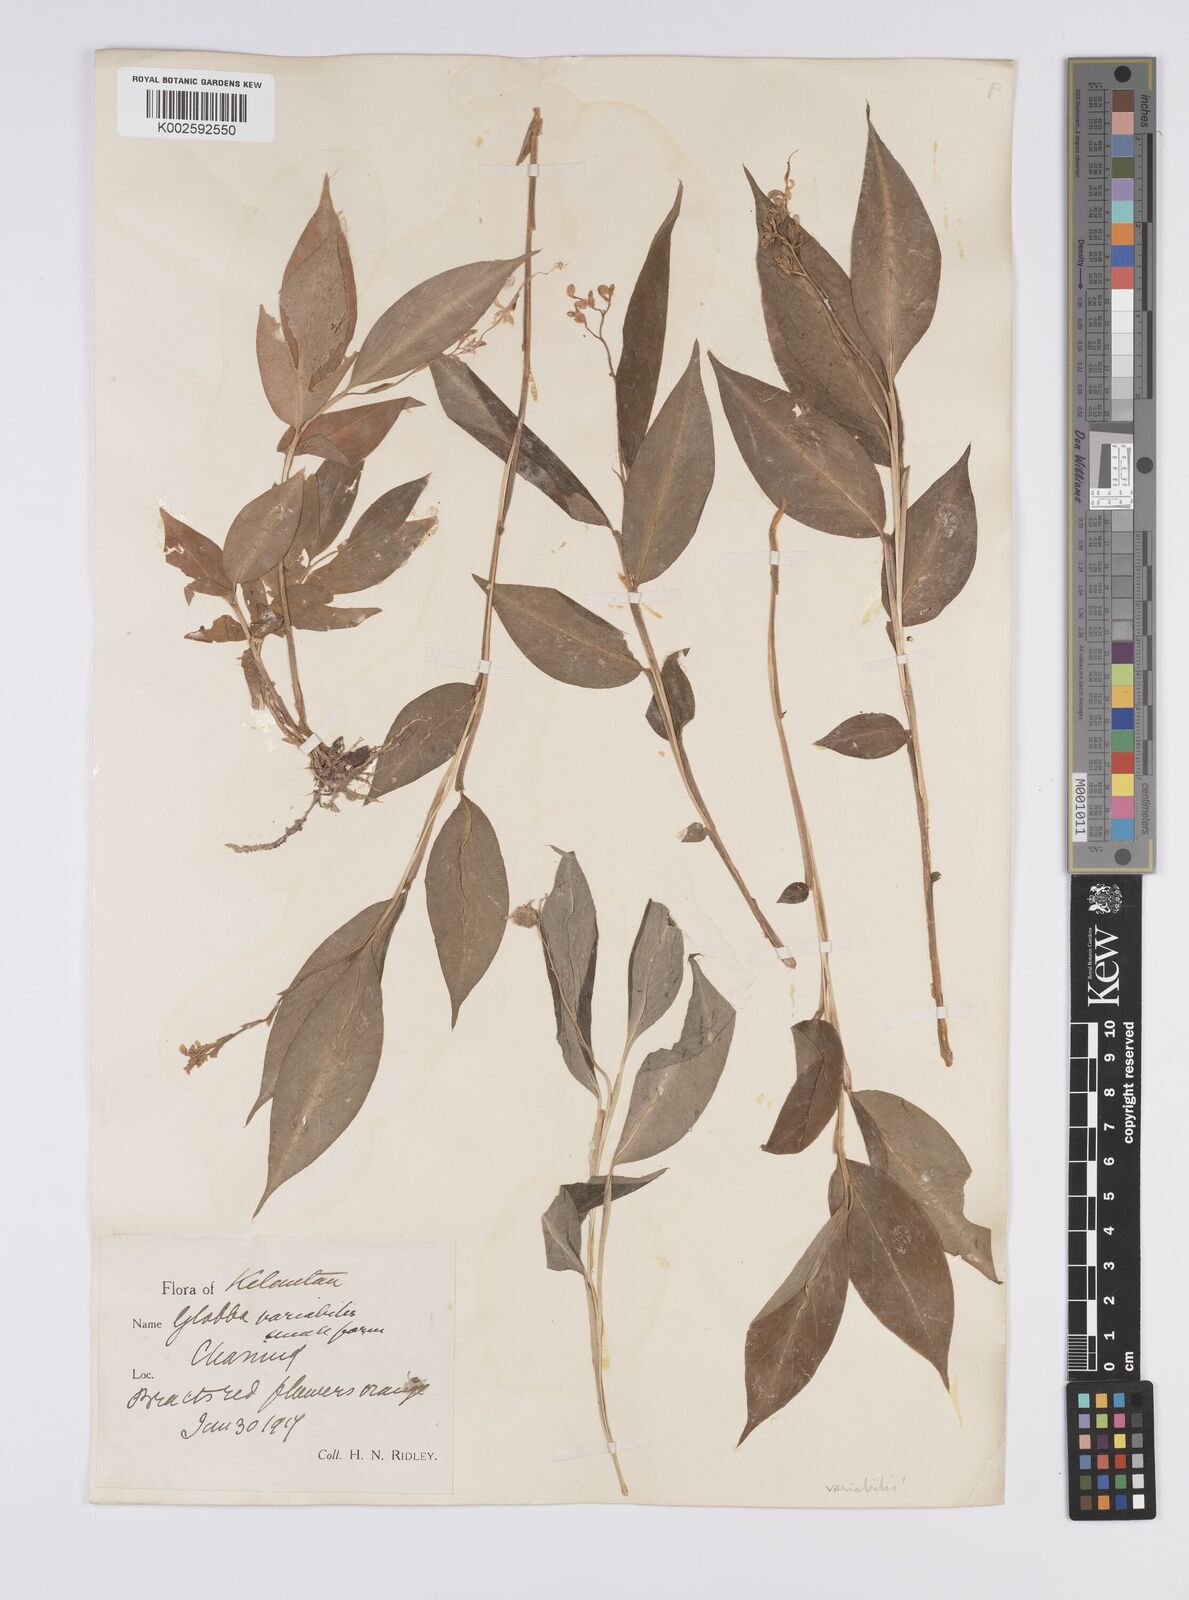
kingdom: Plantae
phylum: Tracheophyta
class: Liliopsida
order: Zingiberales
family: Zingiberaceae
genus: Globba
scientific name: Globba variabilis
